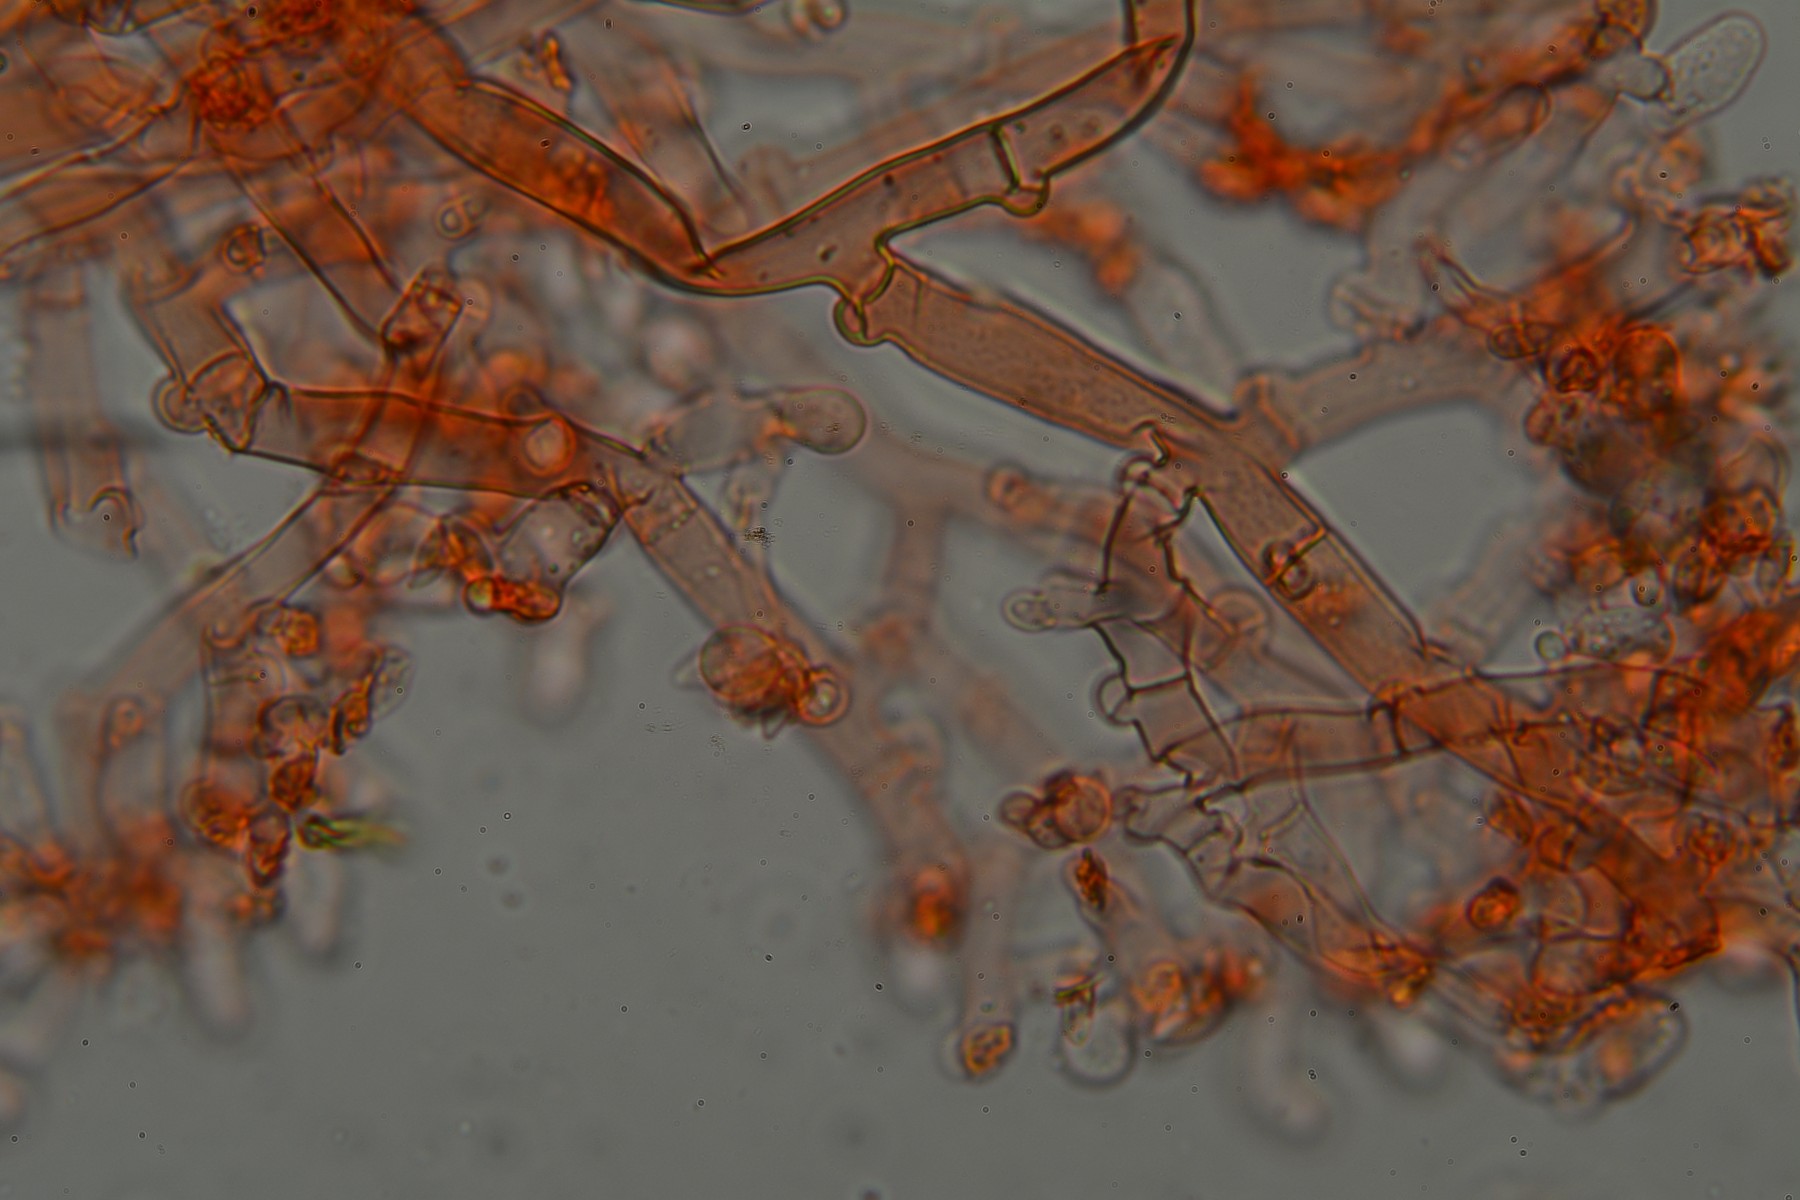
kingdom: Fungi
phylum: Basidiomycota
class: Agaricomycetes
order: Cantharellales
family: Botryobasidiaceae
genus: Botryobasidium
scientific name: Botryobasidium subcoronatum
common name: almindelig spindhinde
